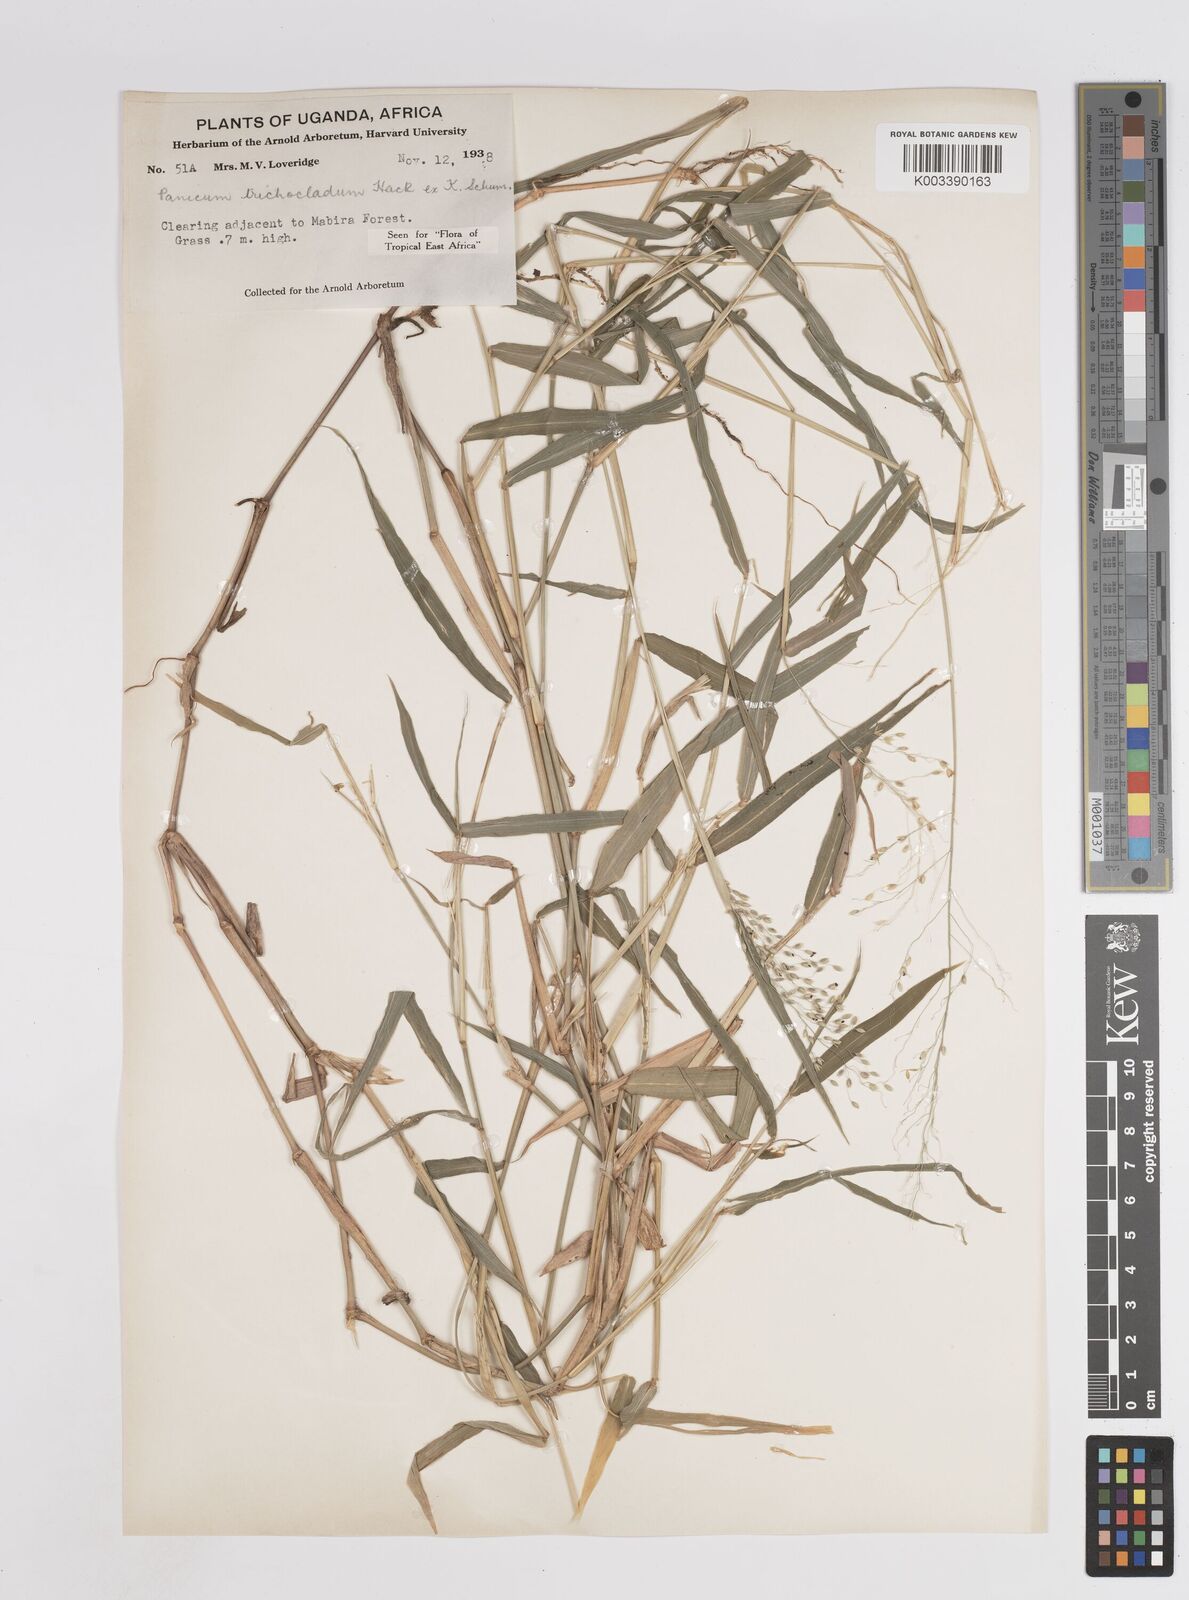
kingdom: Plantae
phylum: Tracheophyta
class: Liliopsida
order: Poales
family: Poaceae
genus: Panicum
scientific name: Panicum trichocladum
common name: Donkey grass
